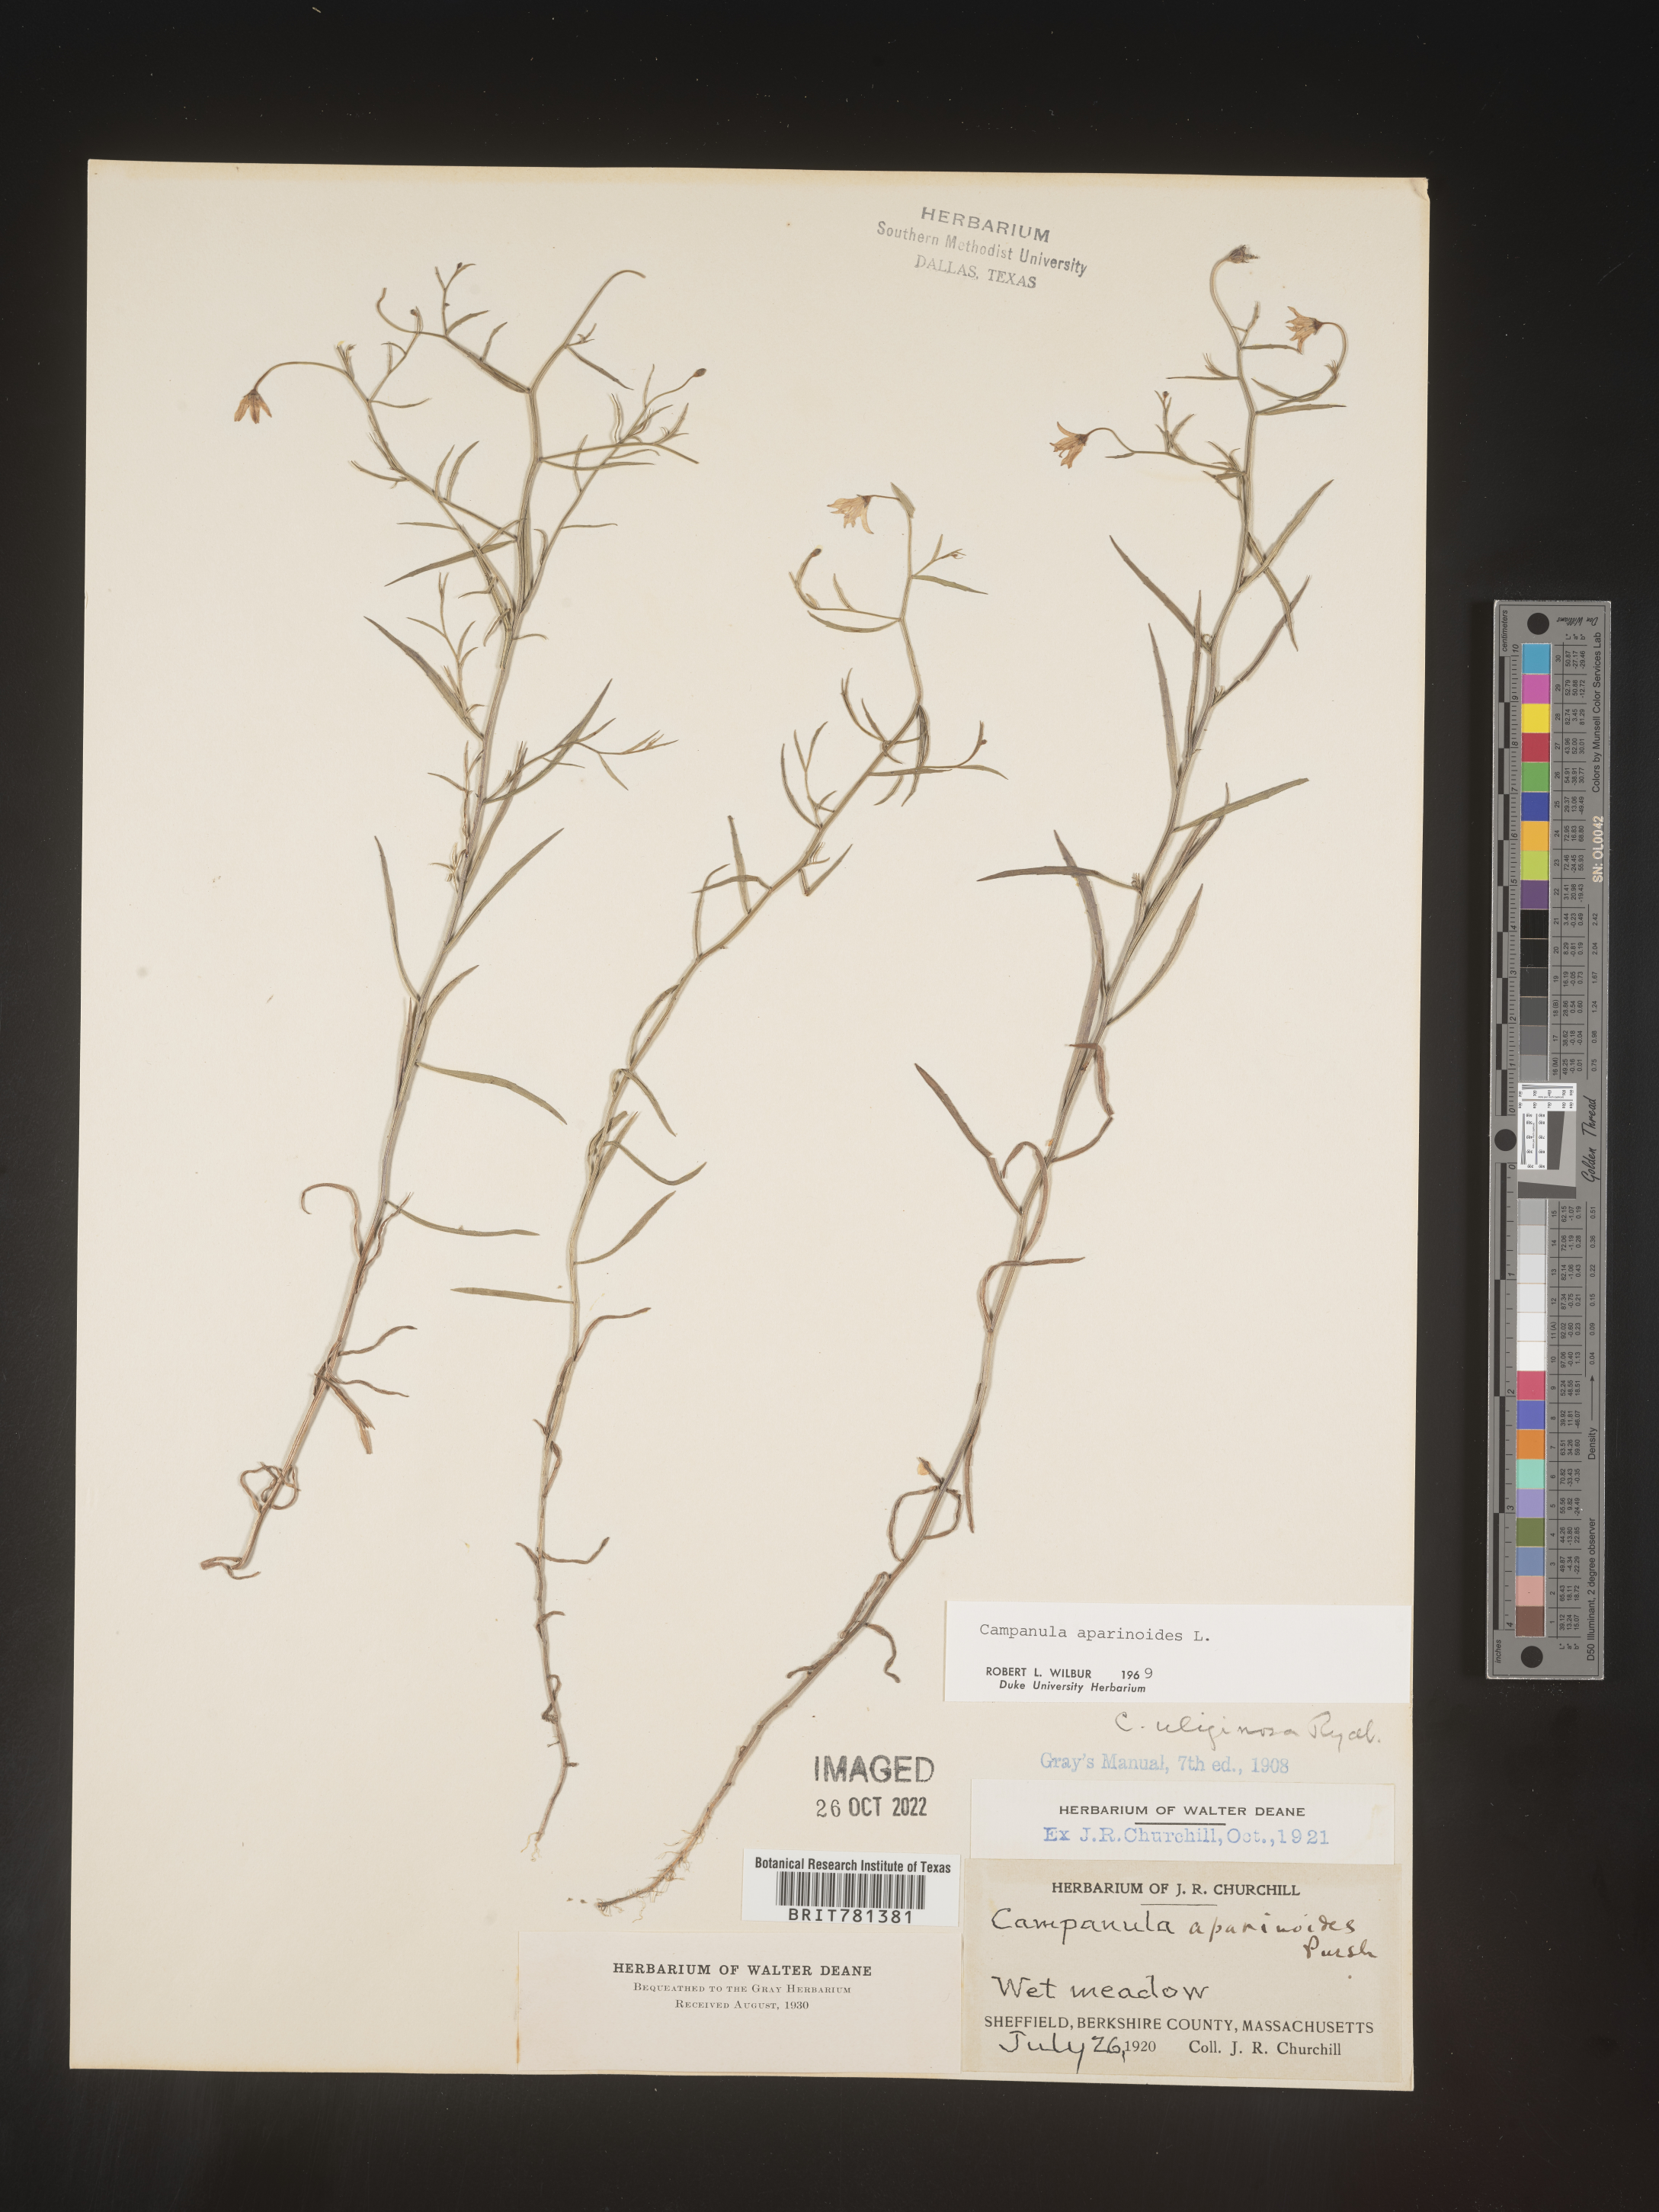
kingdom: Plantae
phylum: Tracheophyta
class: Magnoliopsida
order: Asterales
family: Campanulaceae
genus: Palustricodon
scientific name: Palustricodon aparinoides
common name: Bedstraw bellflower
